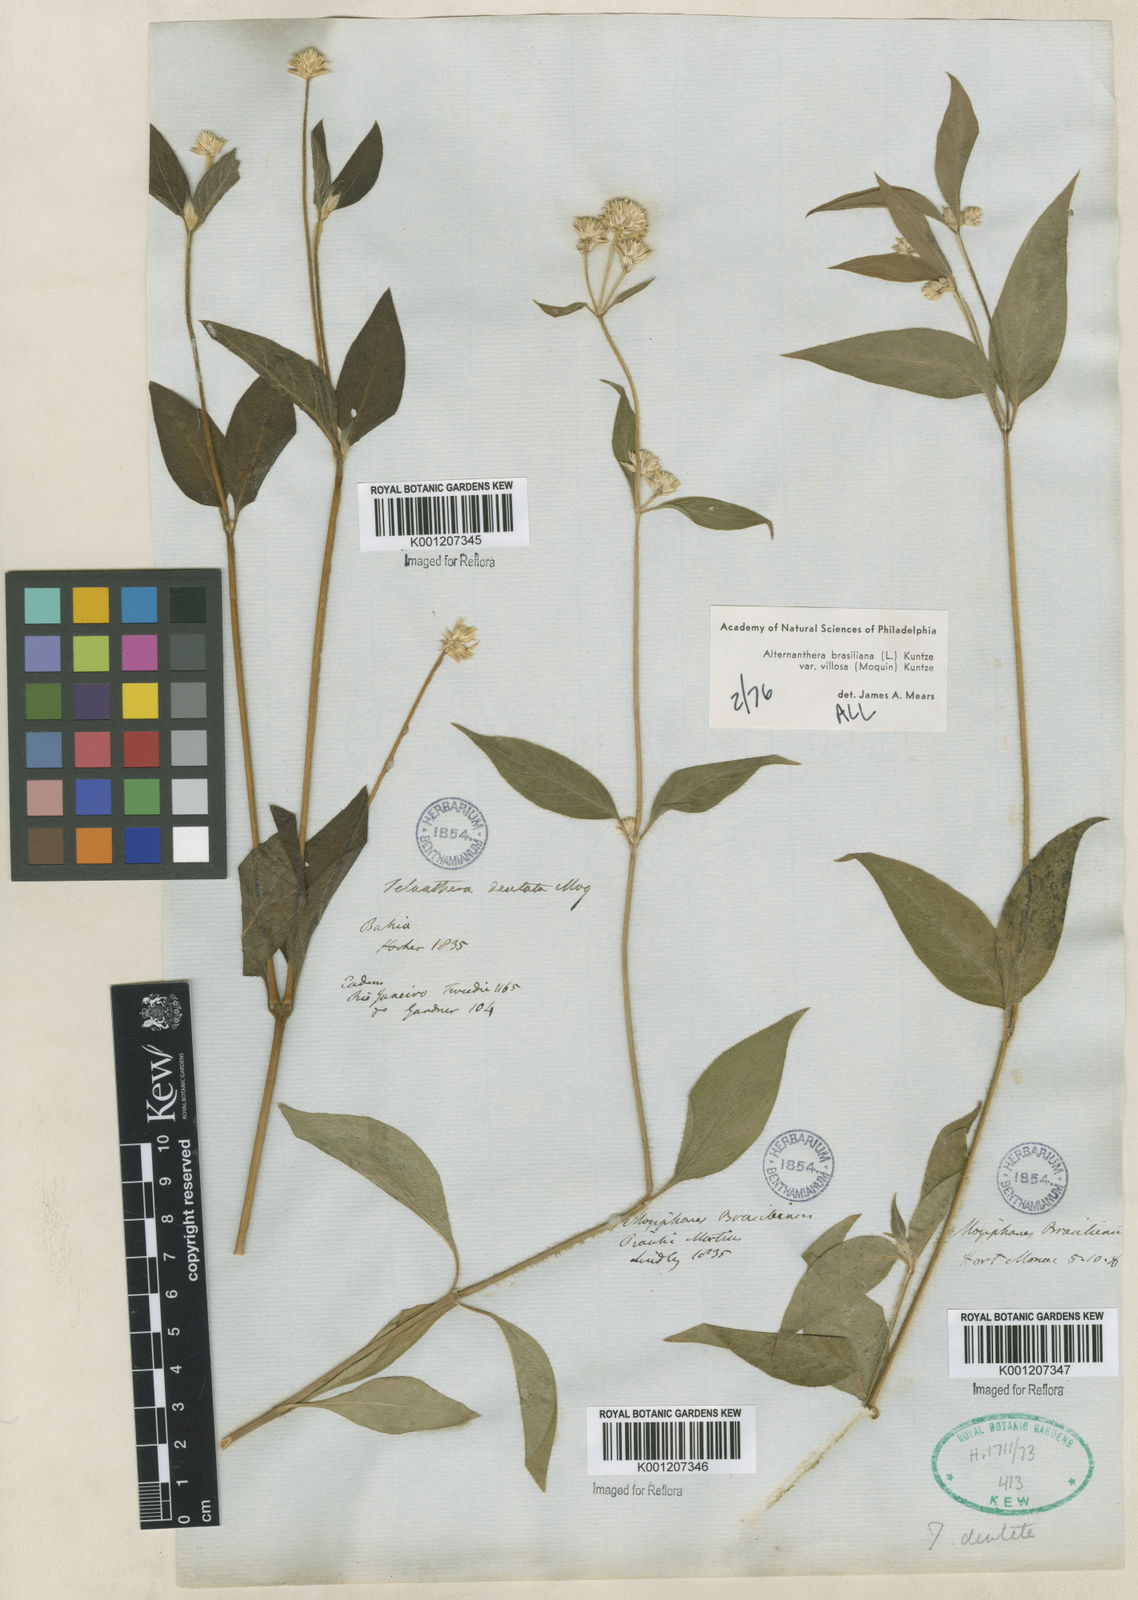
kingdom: Plantae
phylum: Tracheophyta
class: Magnoliopsida
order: Caryophyllales
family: Amaranthaceae
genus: Alternanthera
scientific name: Alternanthera ramosissima
